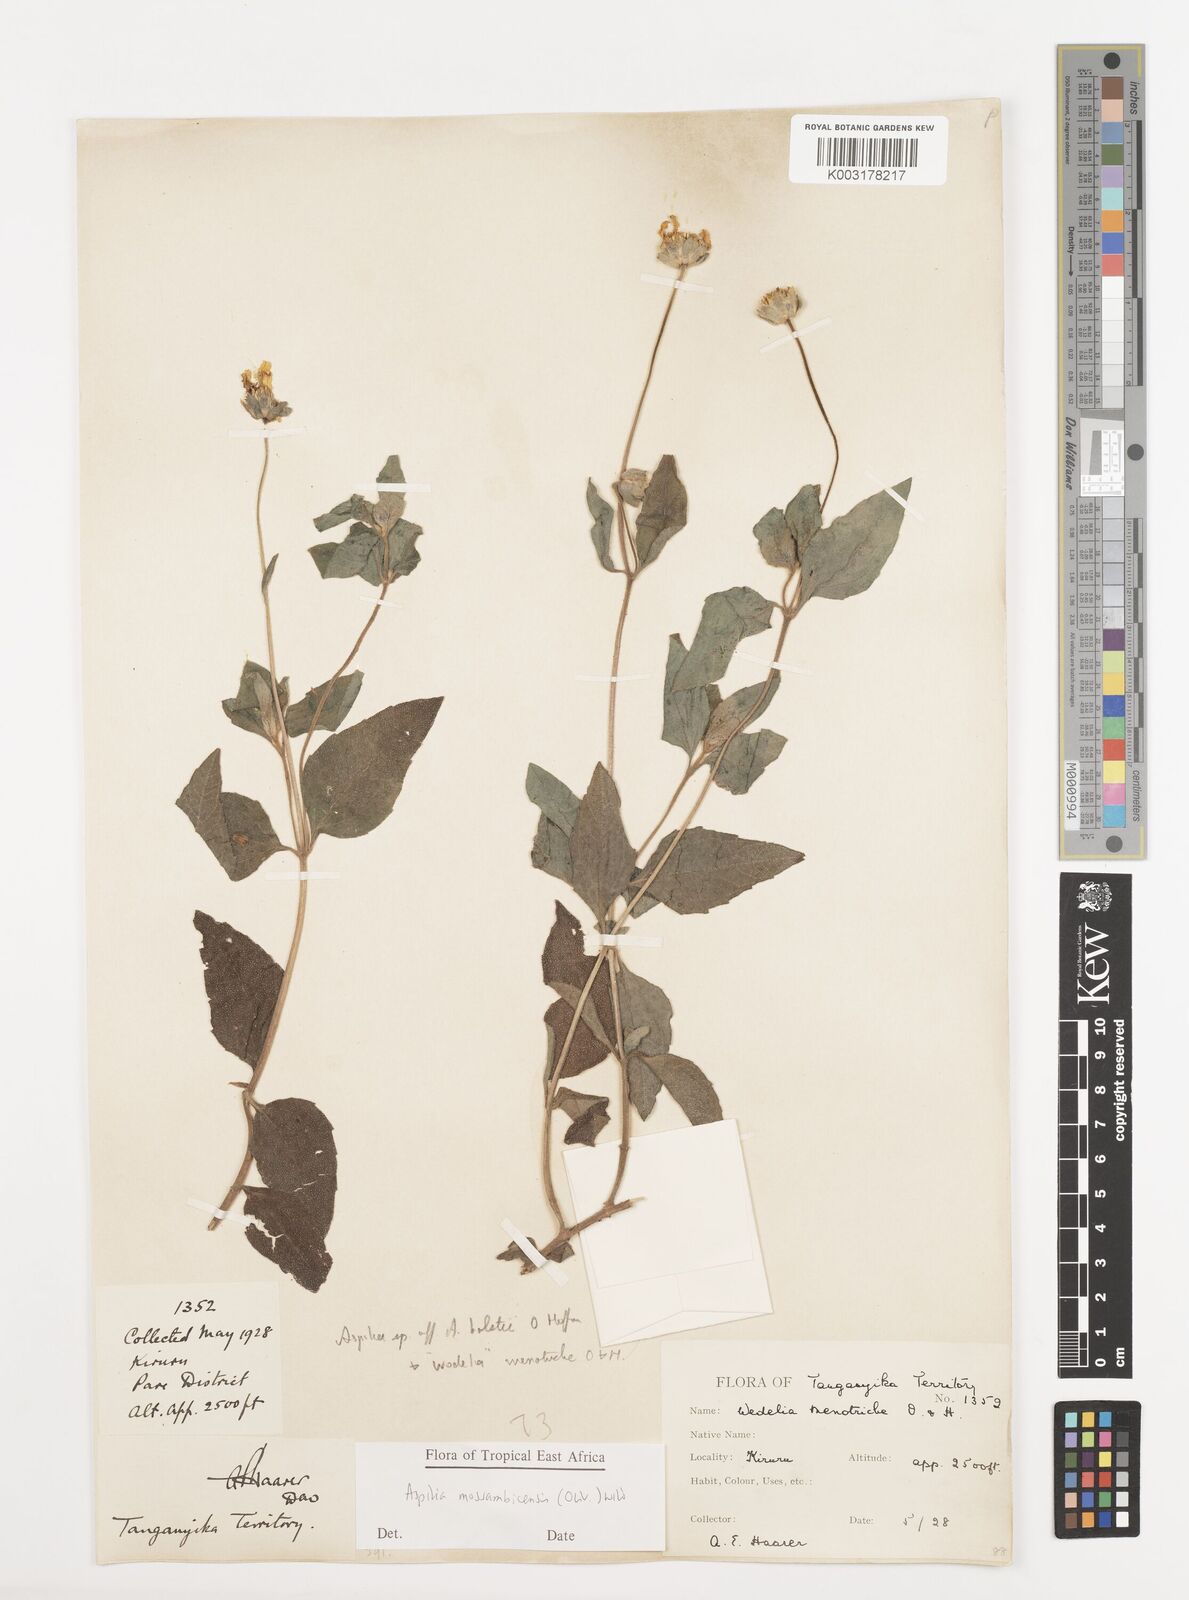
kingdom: Plantae
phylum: Tracheophyta
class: Magnoliopsida
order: Asterales
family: Asteraceae
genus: Aspilia
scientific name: Aspilia mossambicensis
